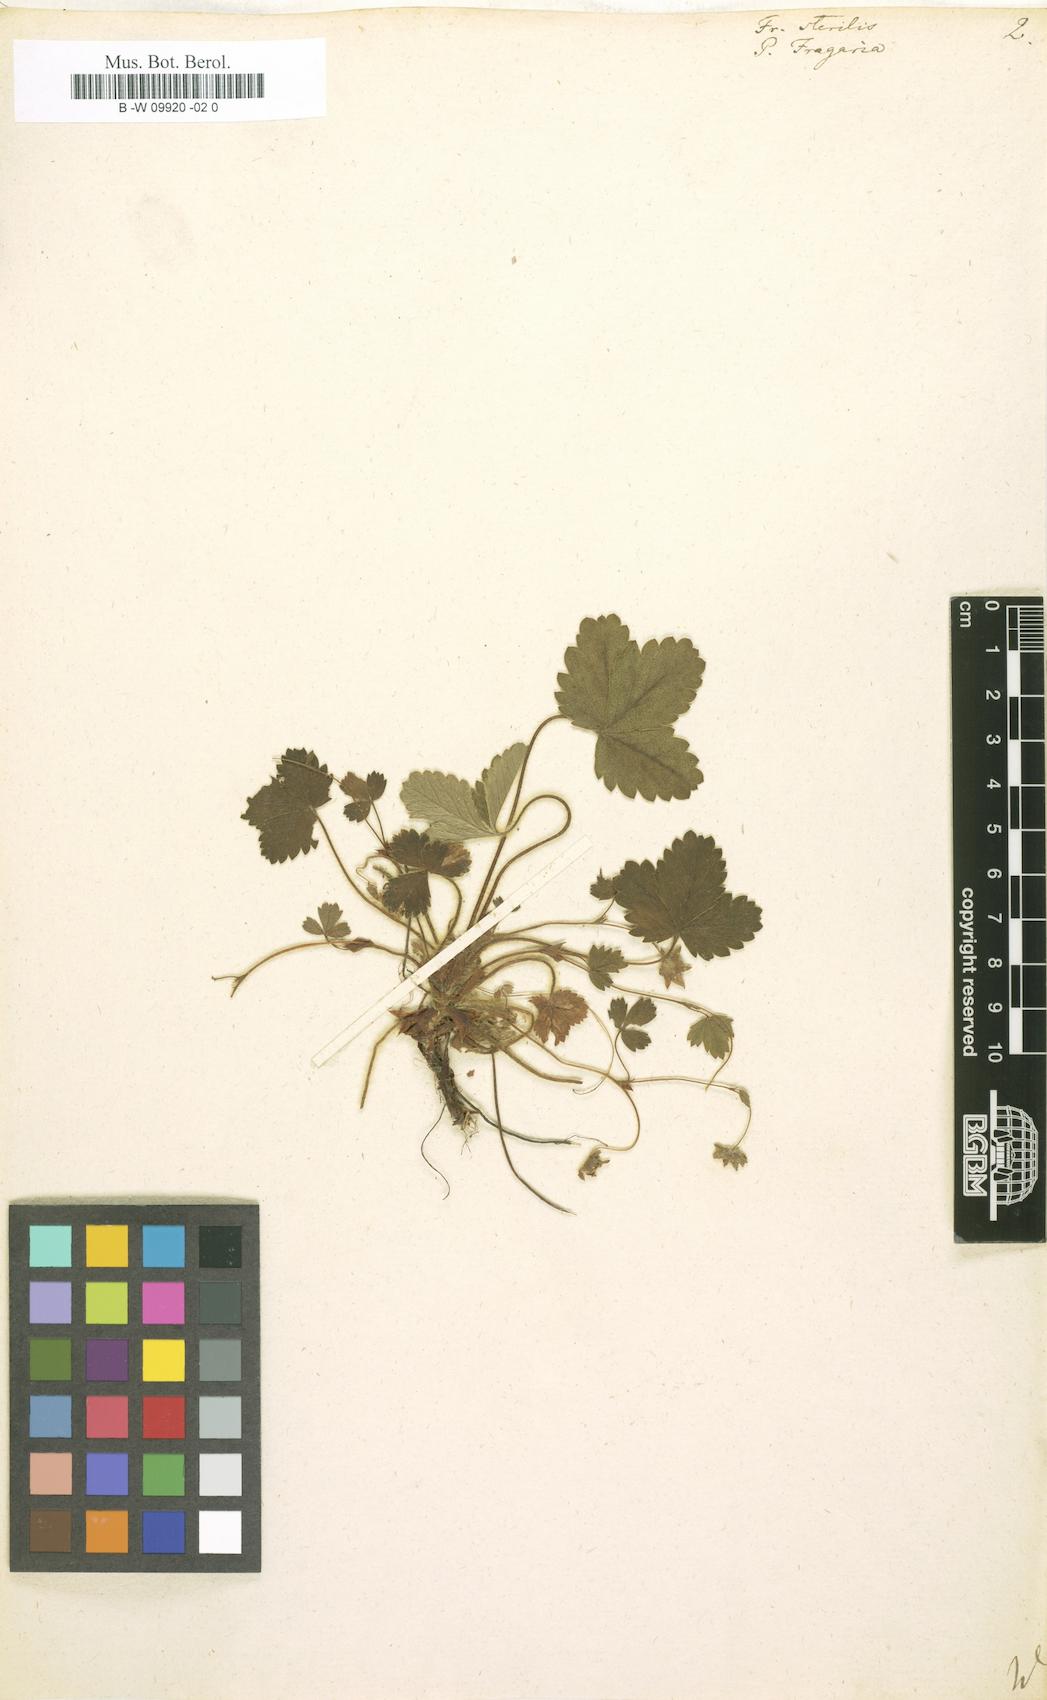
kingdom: Plantae
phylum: Tracheophyta
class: Magnoliopsida
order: Rosales
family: Rosaceae
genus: Potentilla
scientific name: Potentilla sterilis
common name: Barren strawberry
